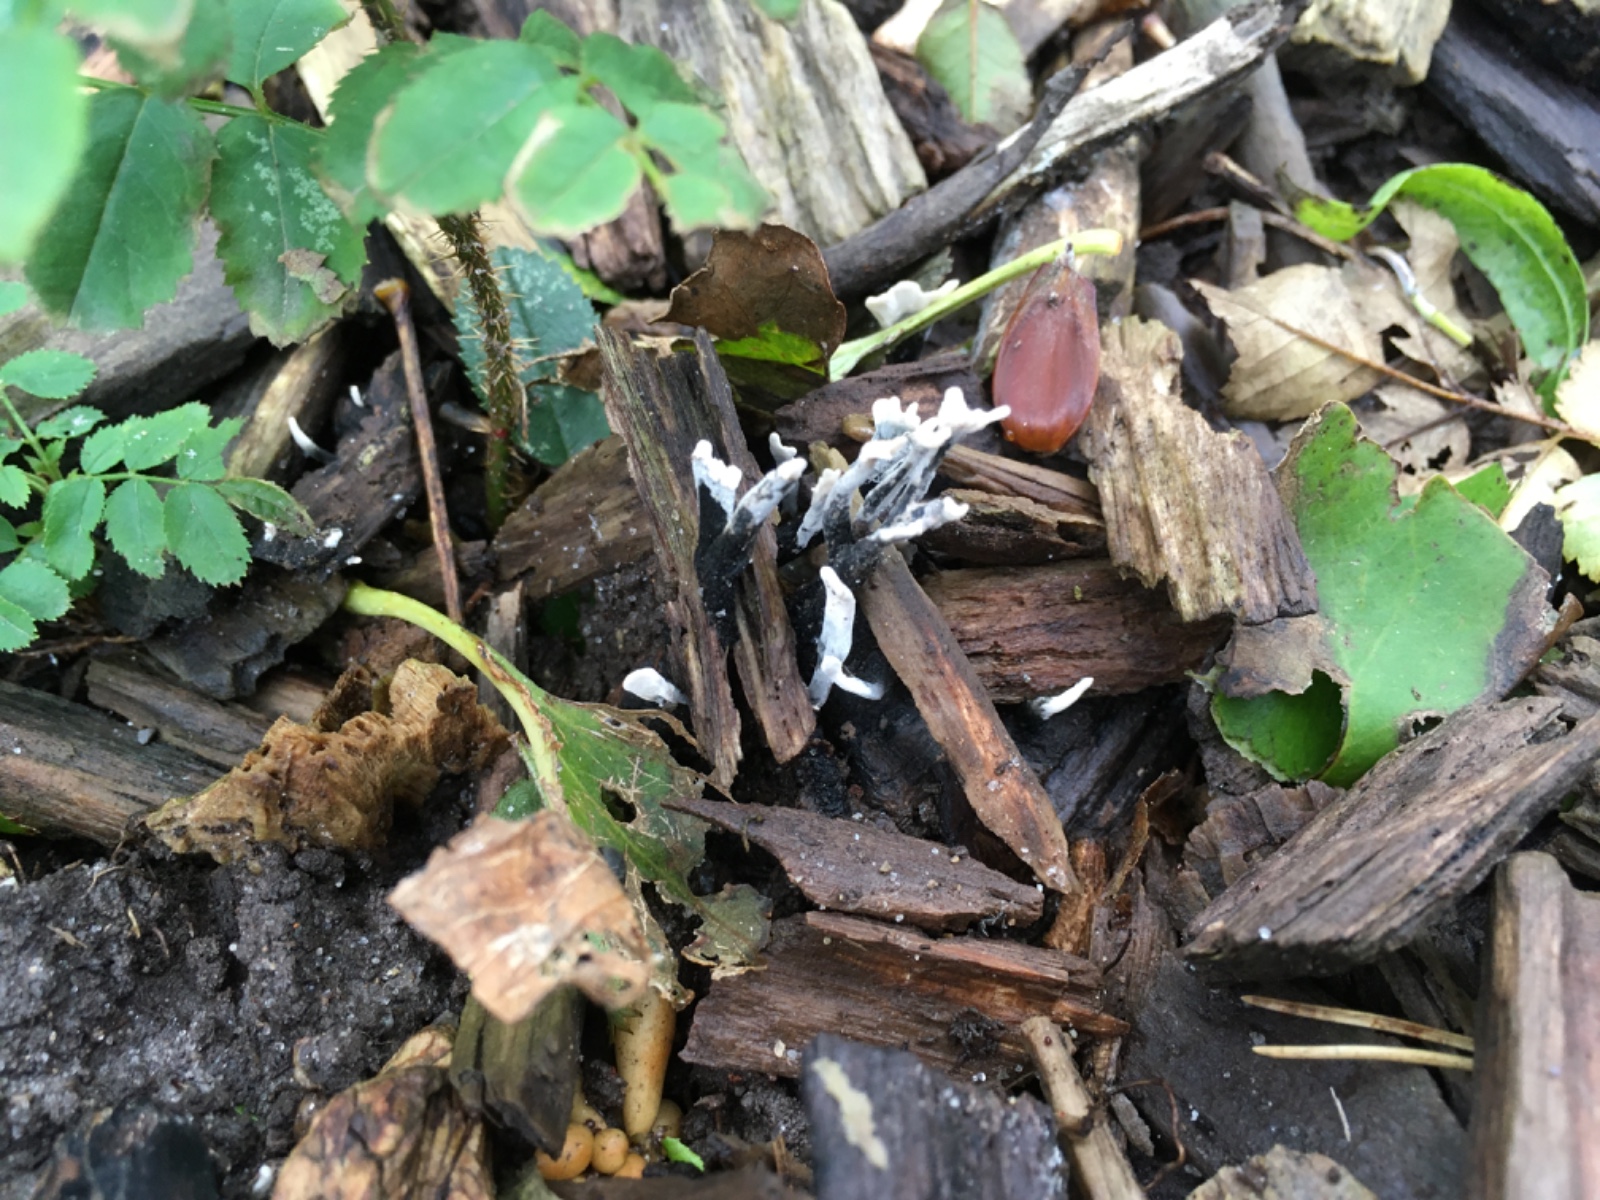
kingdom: Fungi
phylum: Ascomycota
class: Sordariomycetes
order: Xylariales
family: Xylariaceae
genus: Xylaria
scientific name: Xylaria hypoxylon
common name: grenet stødsvamp
